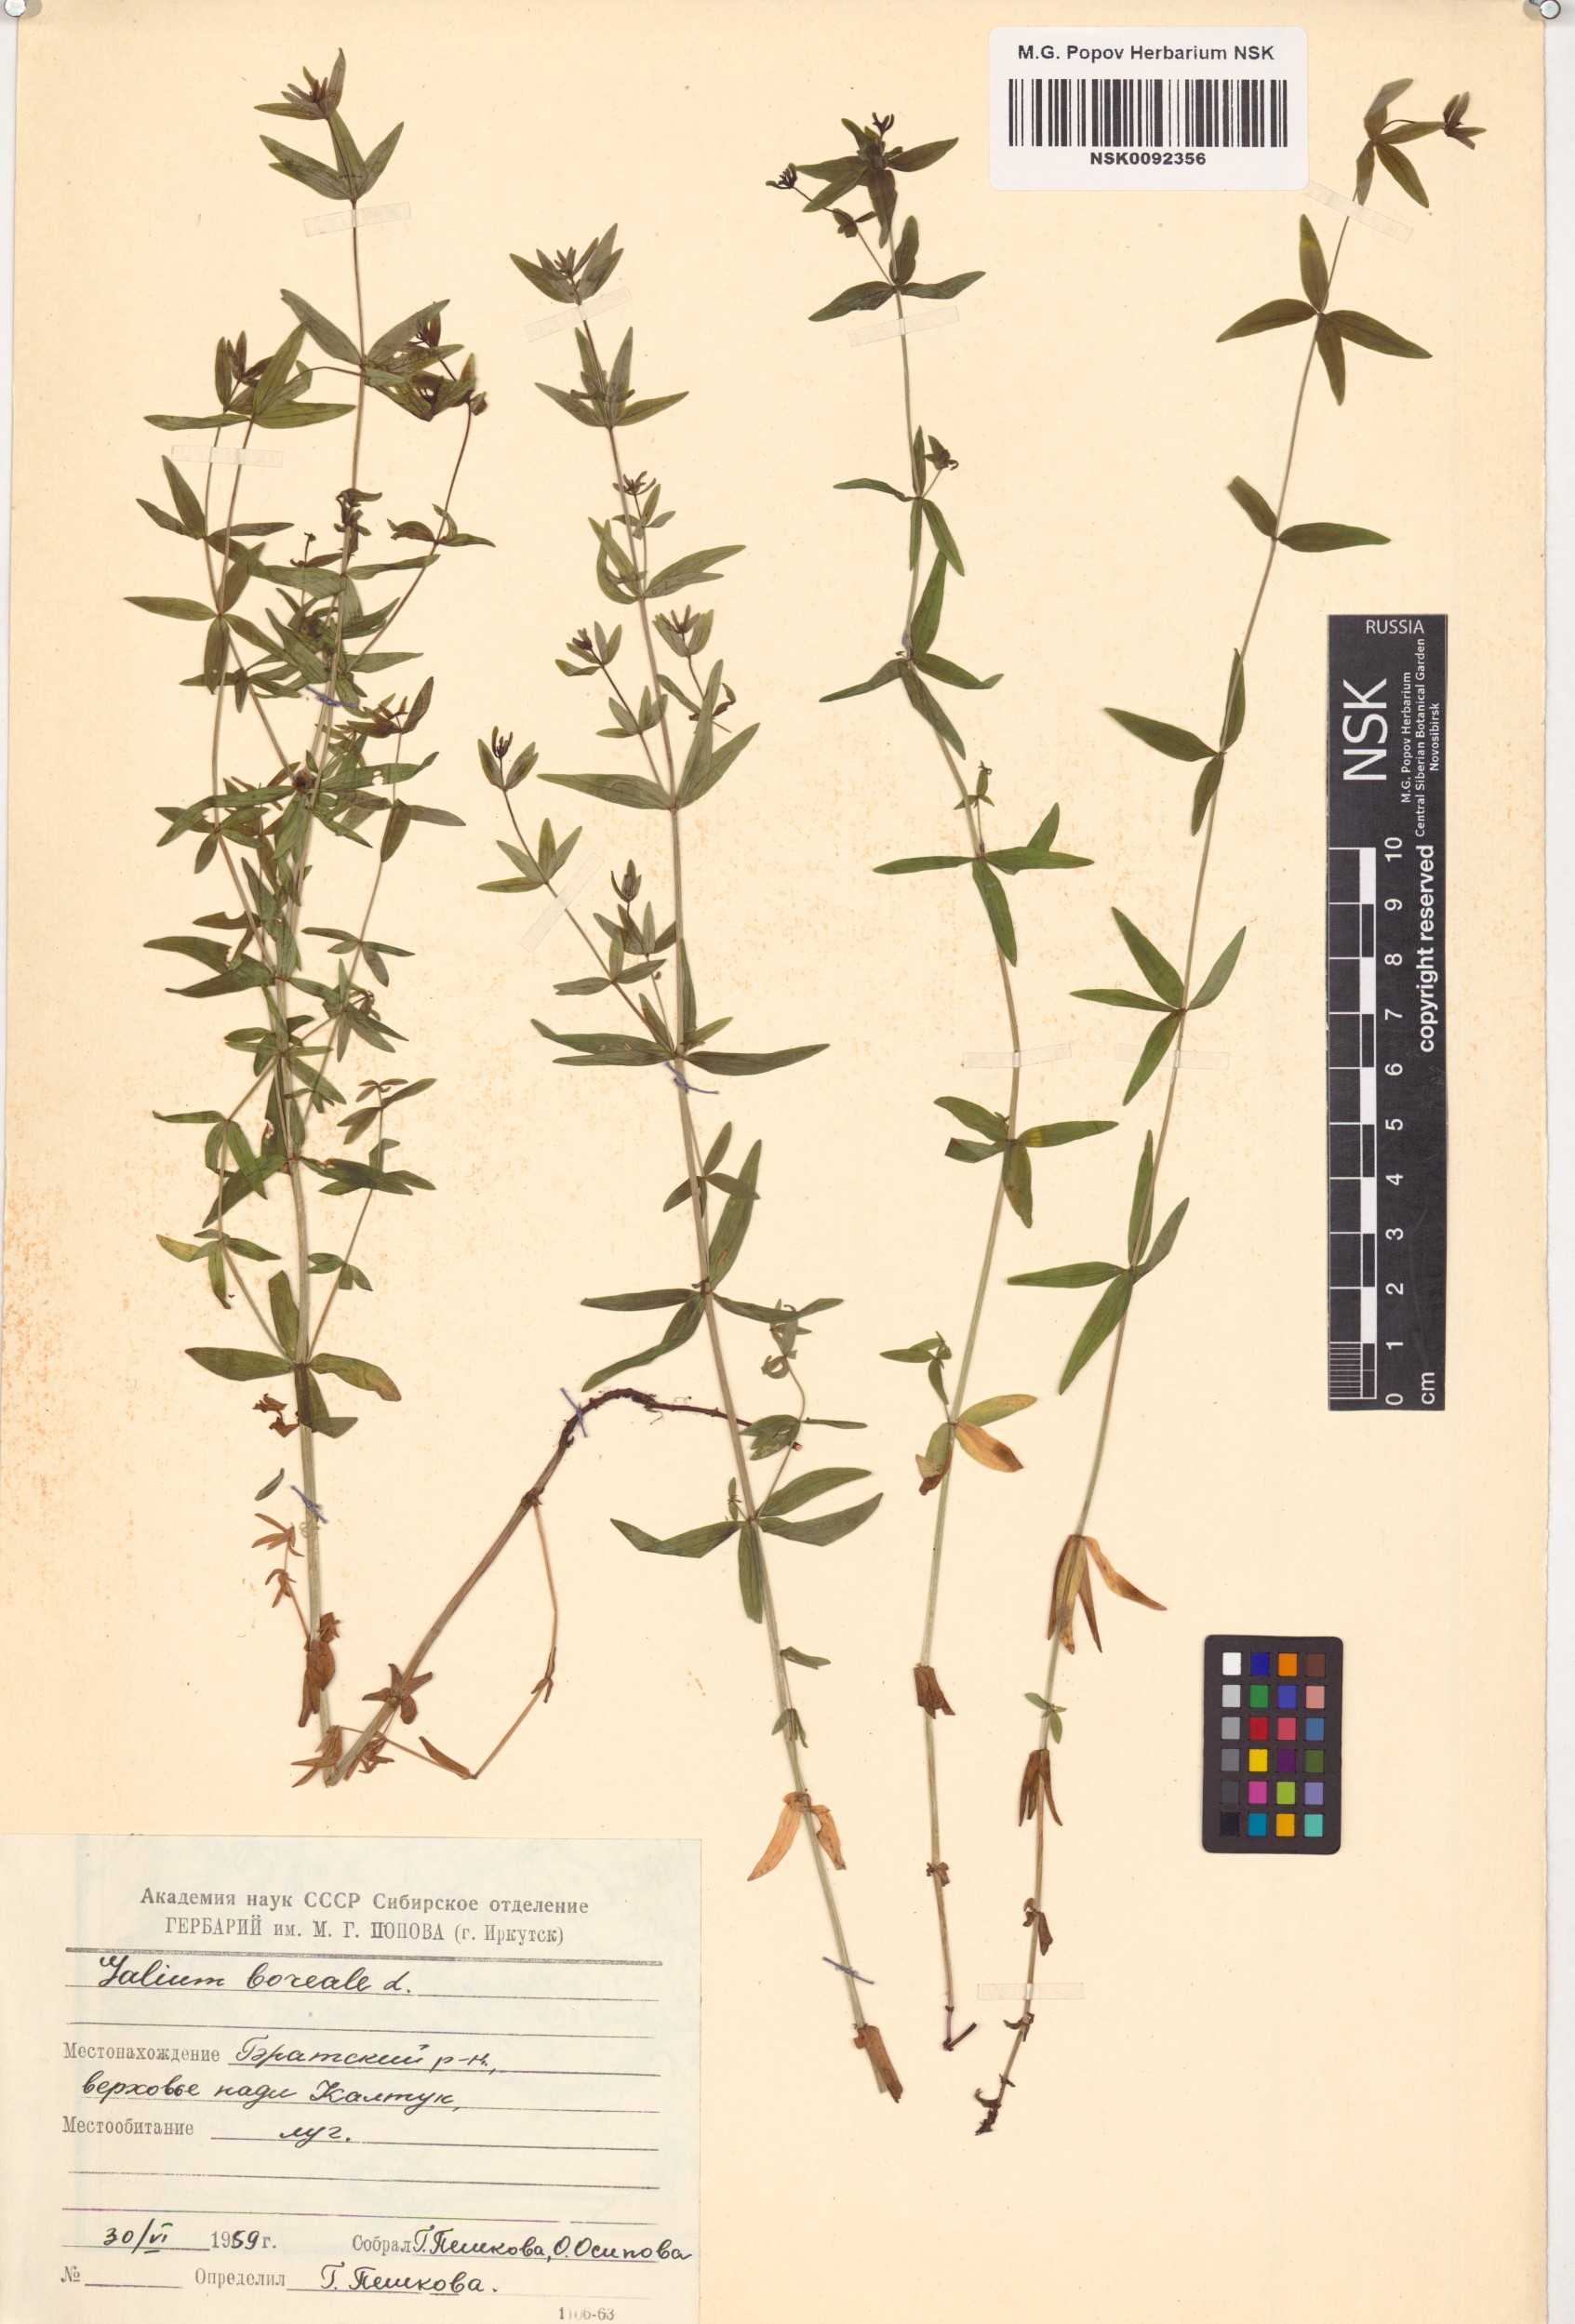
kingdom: Plantae
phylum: Tracheophyta
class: Magnoliopsida
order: Gentianales
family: Rubiaceae
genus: Galium
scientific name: Galium boreale
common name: Northern bedstraw
